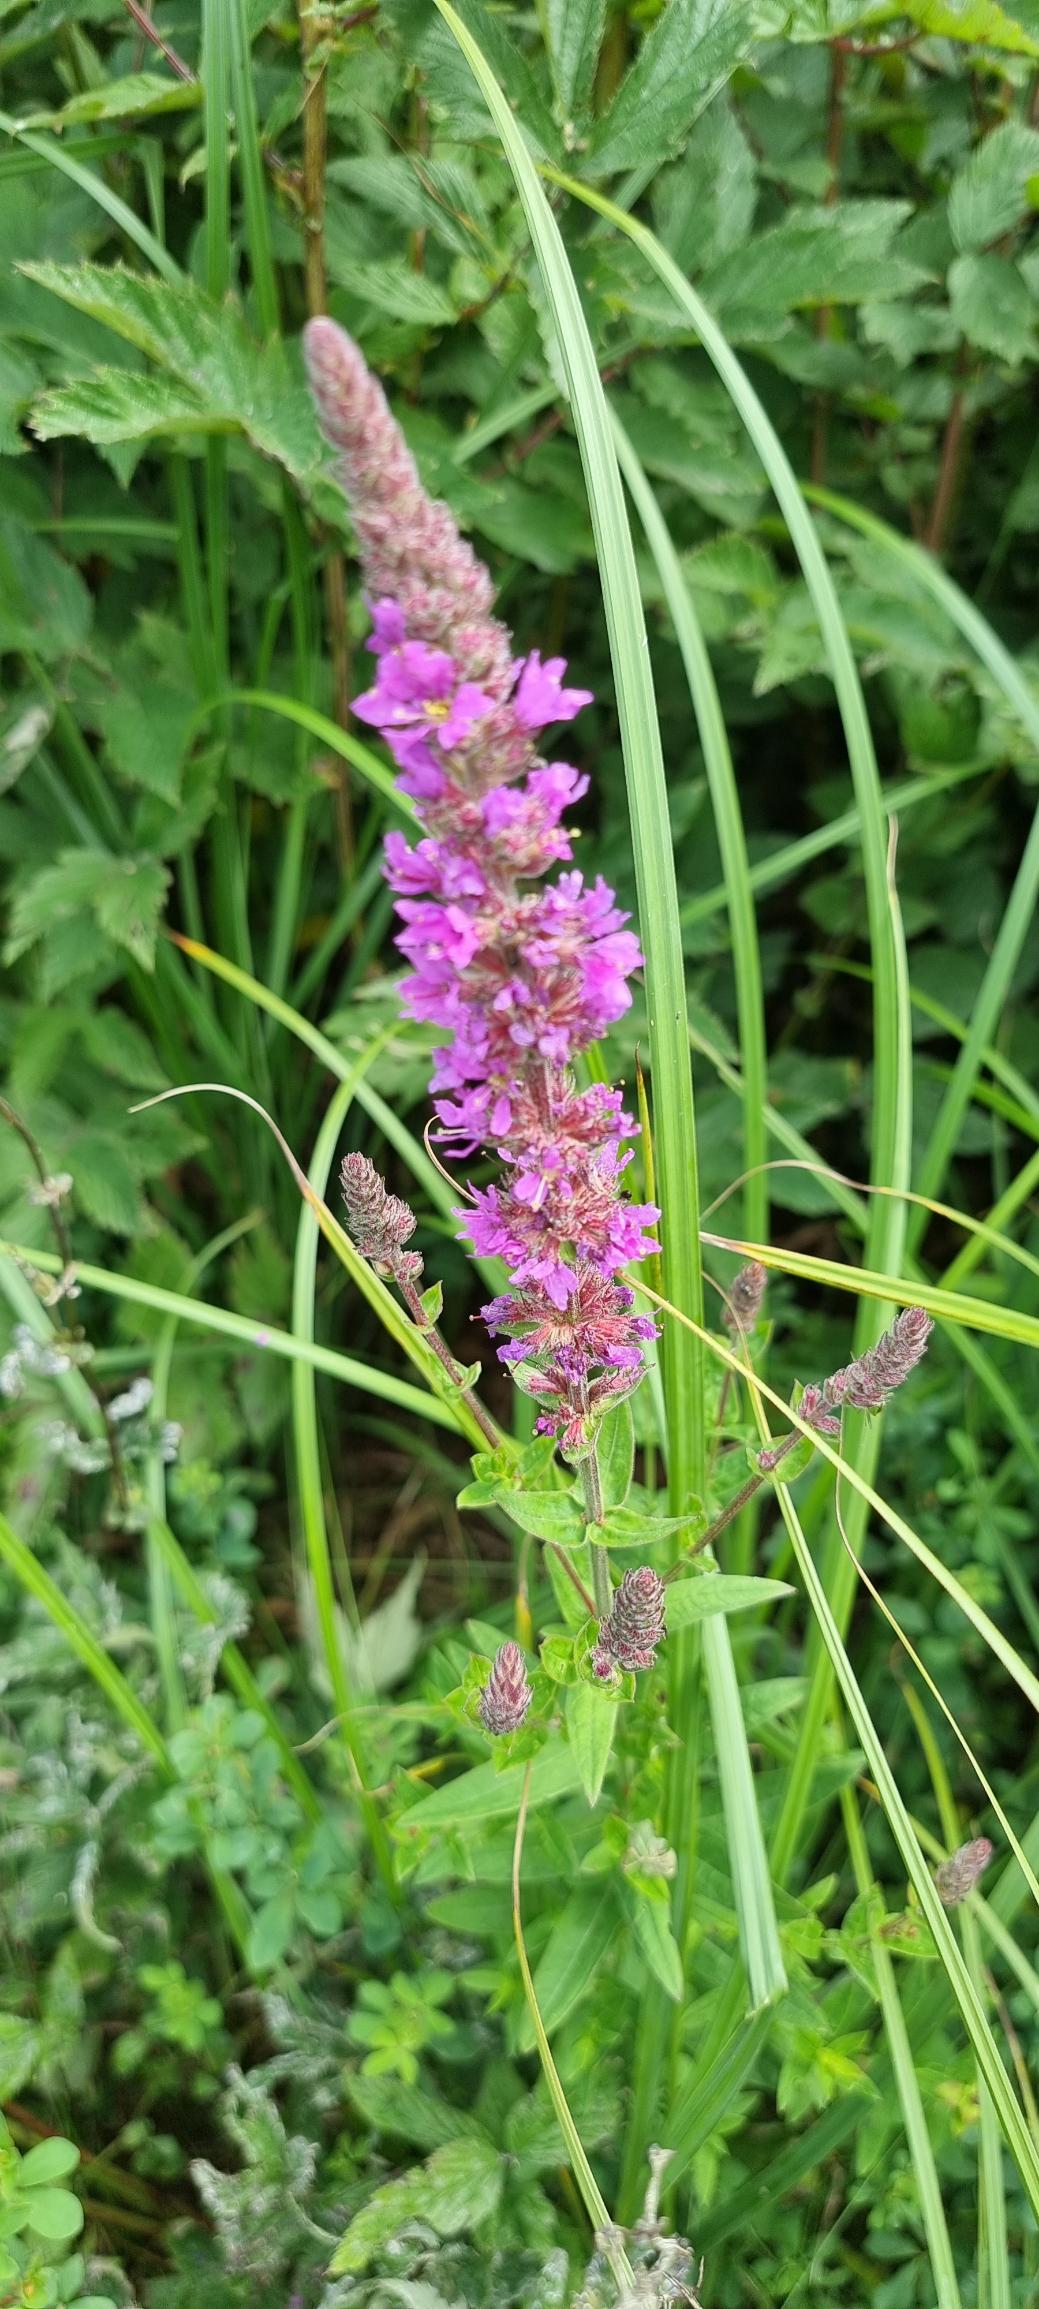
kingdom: Plantae
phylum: Tracheophyta
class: Magnoliopsida
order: Myrtales
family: Lythraceae
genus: Lythrum
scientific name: Lythrum salicaria
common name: Kattehale
